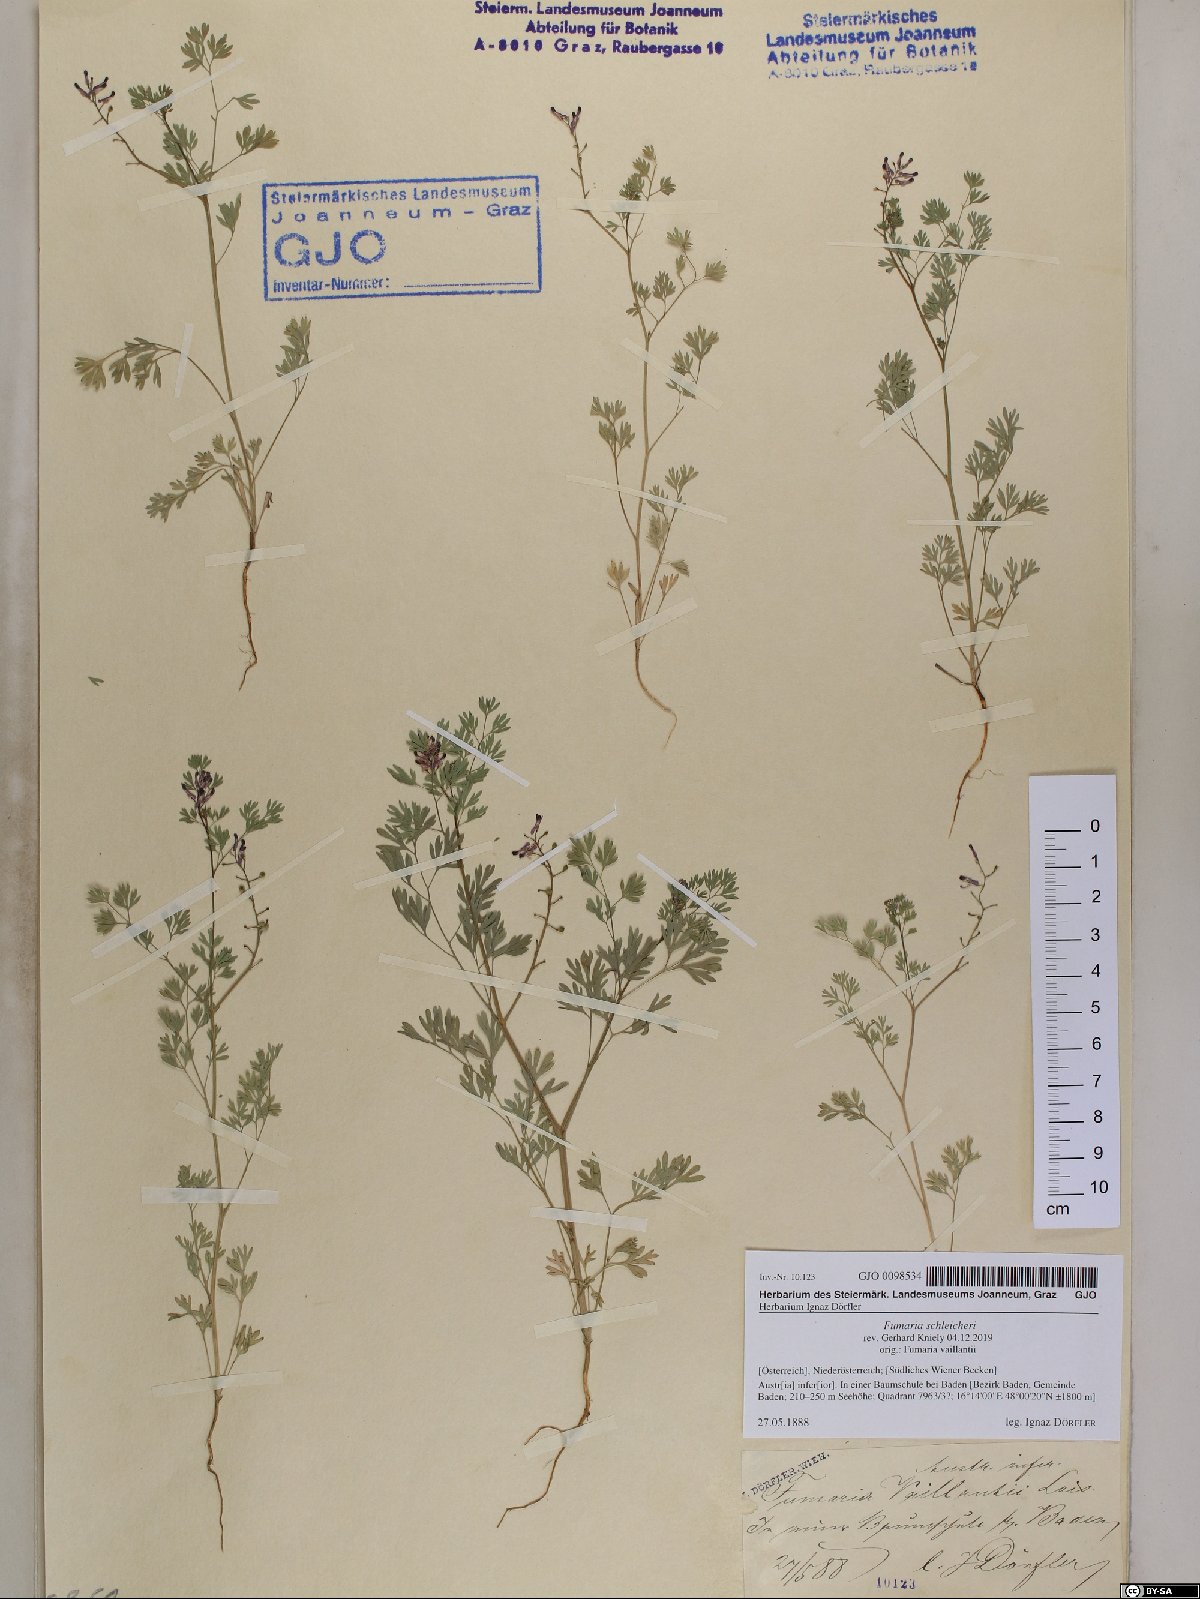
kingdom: Plantae
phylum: Tracheophyta
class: Magnoliopsida
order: Ranunculales
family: Papaveraceae
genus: Fumaria
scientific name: Fumaria schleicheri
